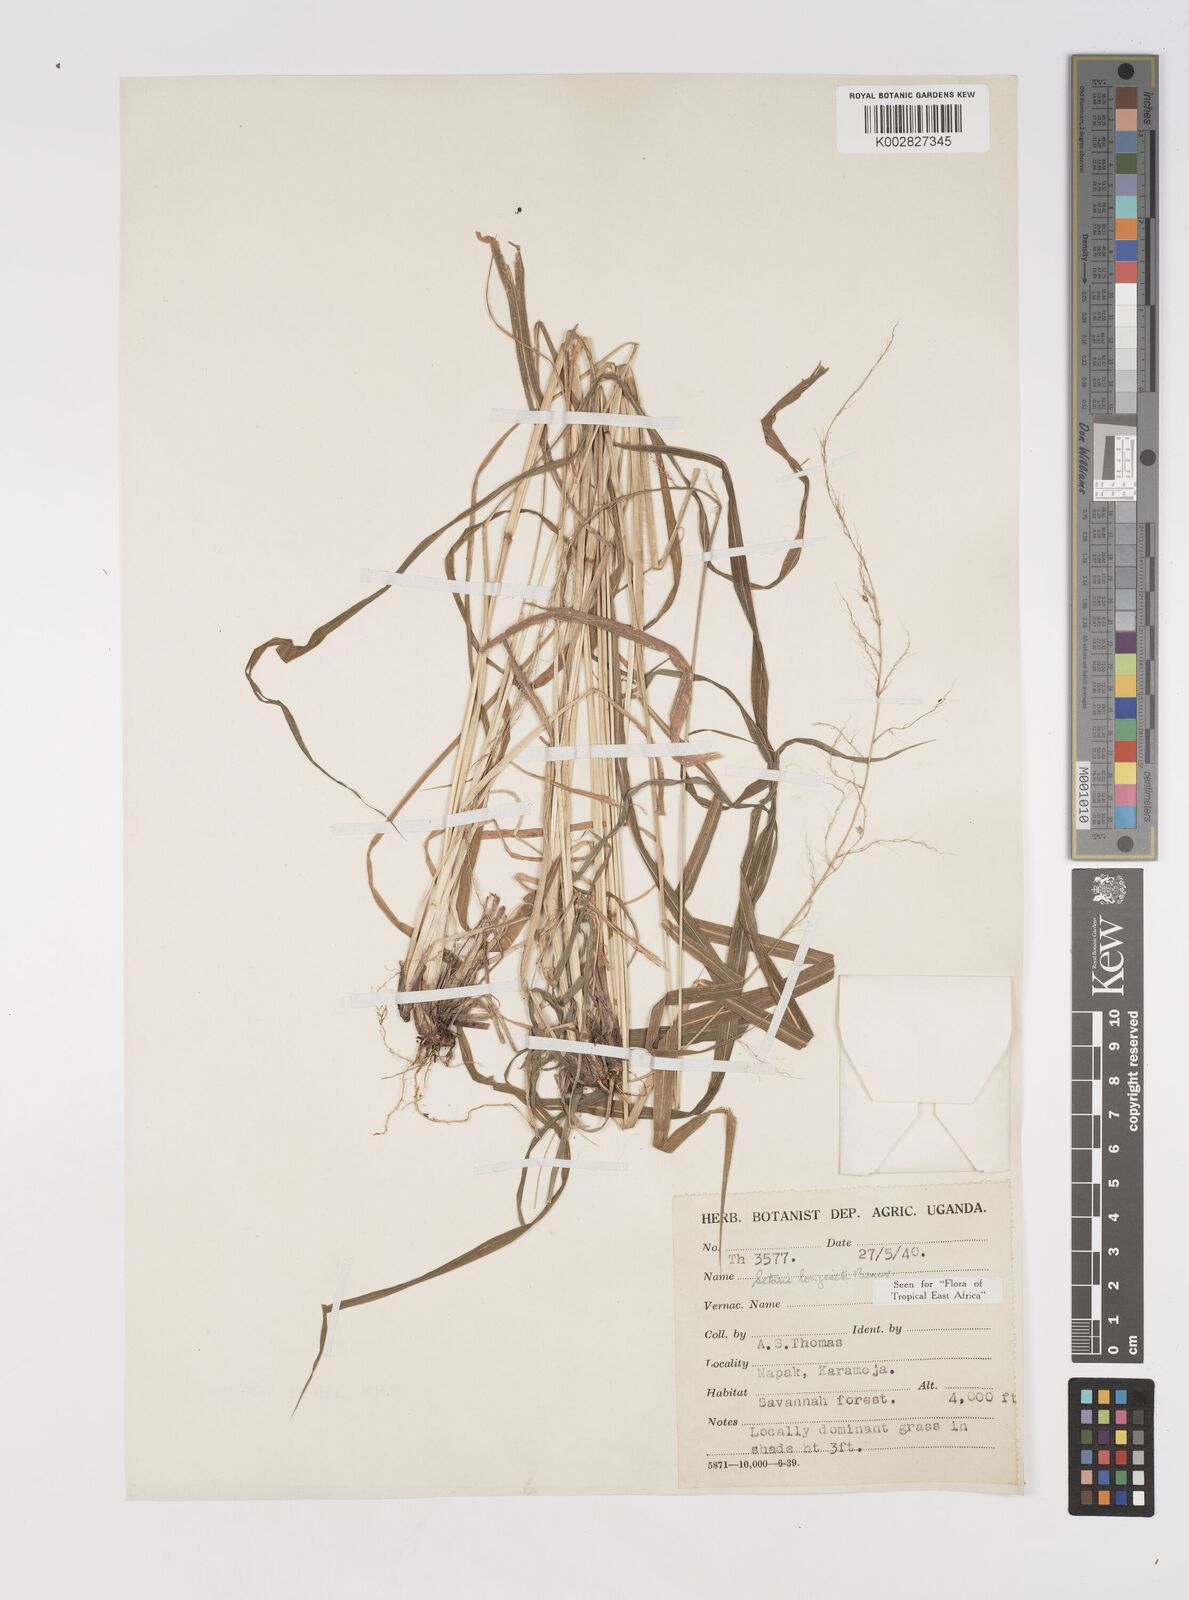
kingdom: Plantae
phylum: Tracheophyta
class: Liliopsida
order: Poales
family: Poaceae
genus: Setaria
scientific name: Setaria longiseta
